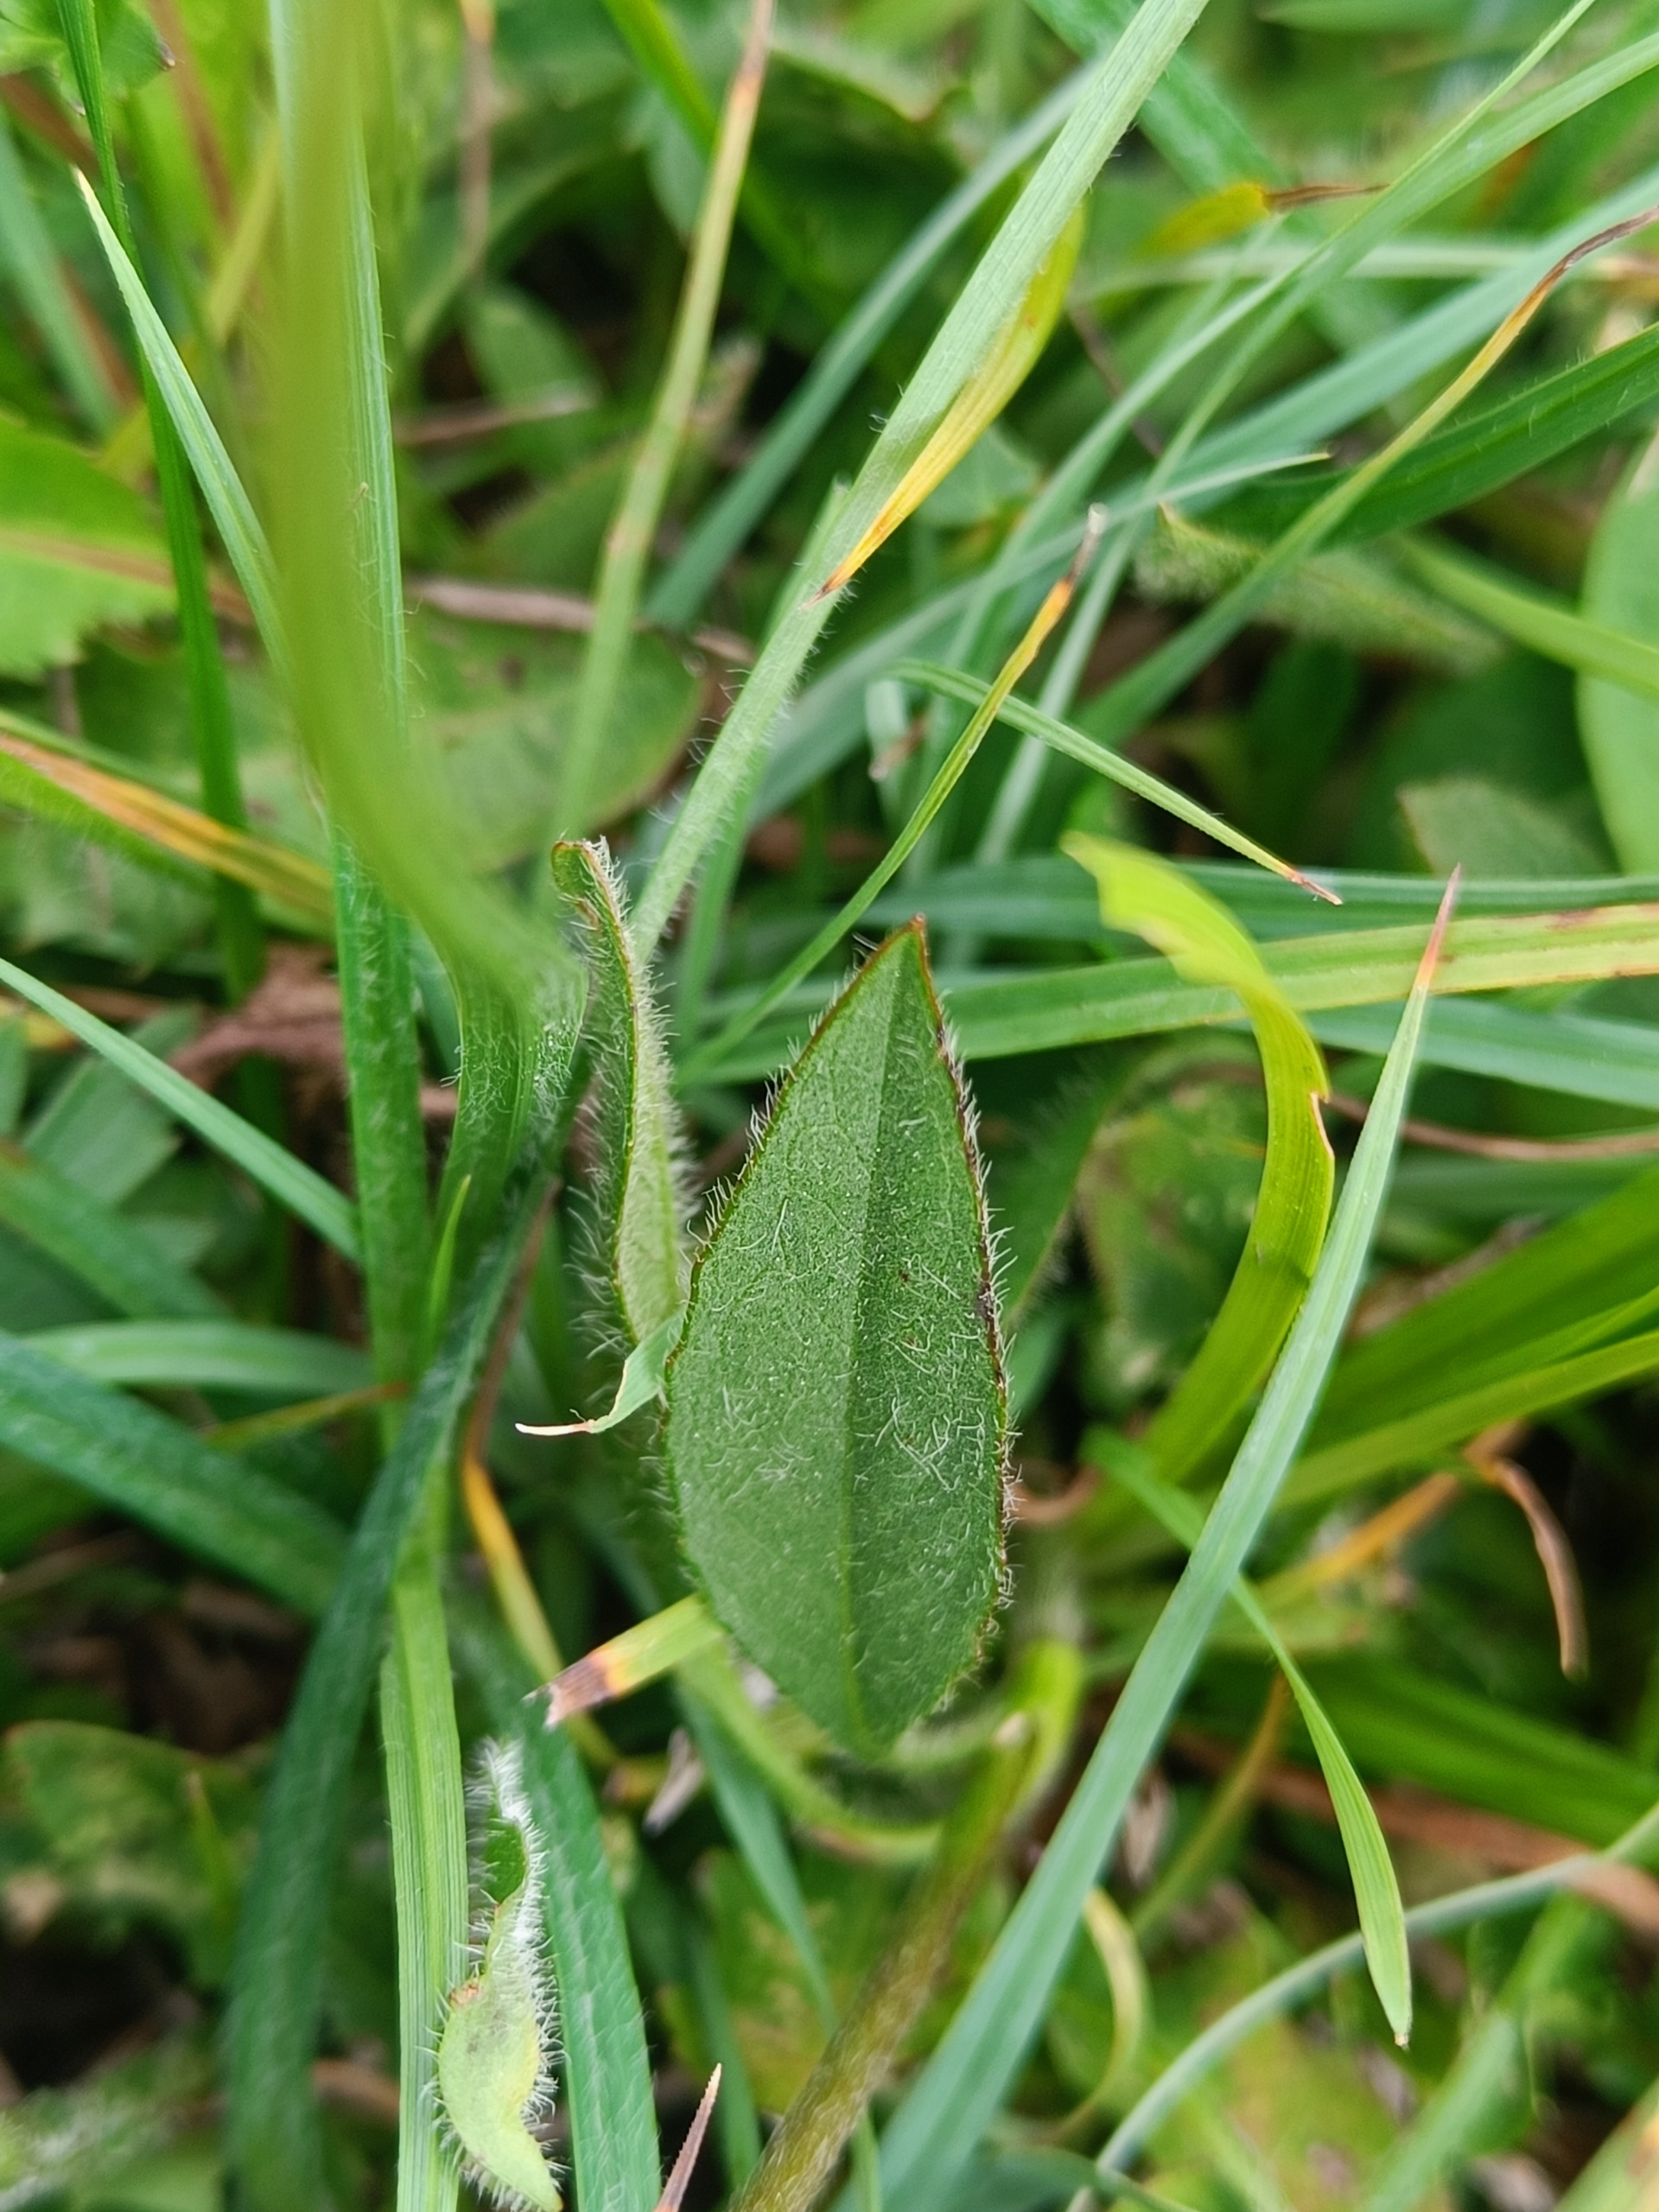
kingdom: Plantae
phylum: Tracheophyta
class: Magnoliopsida
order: Dipsacales
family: Caprifoliaceae
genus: Succisa
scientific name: Succisa pratensis
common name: Djævelsbid
